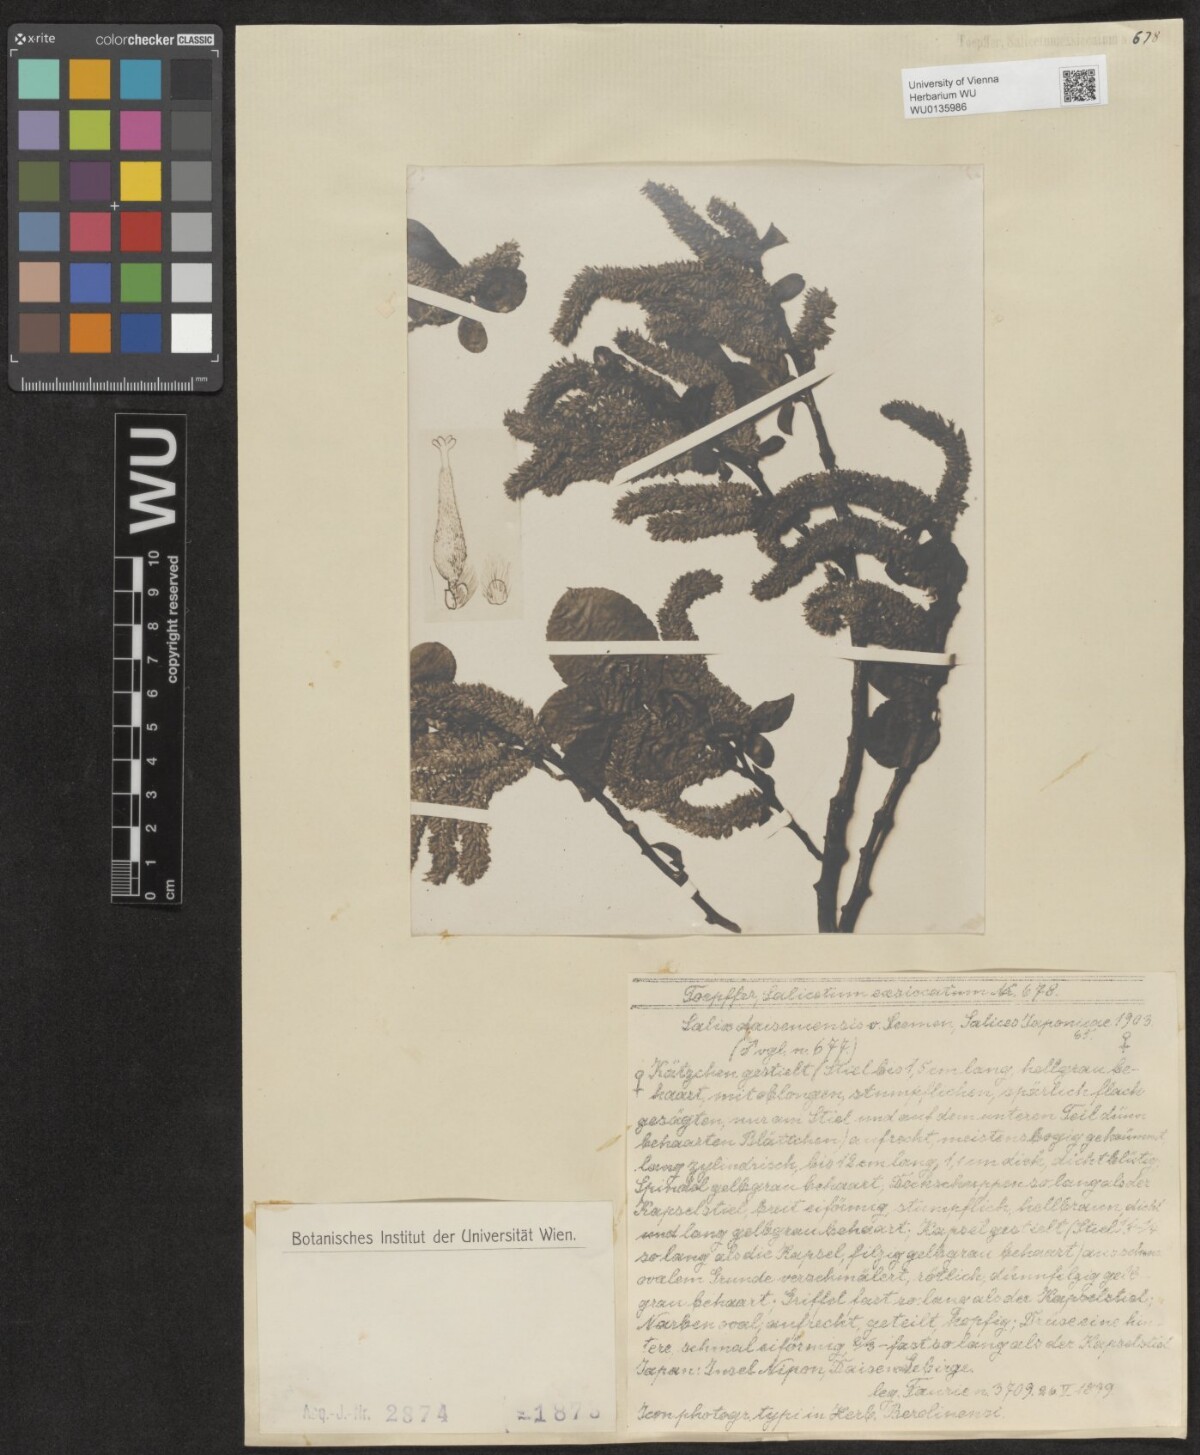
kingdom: Plantae
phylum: Tracheophyta
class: Magnoliopsida
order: Malpighiales
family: Salicaceae
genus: Salix
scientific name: Salix sieboldiana
